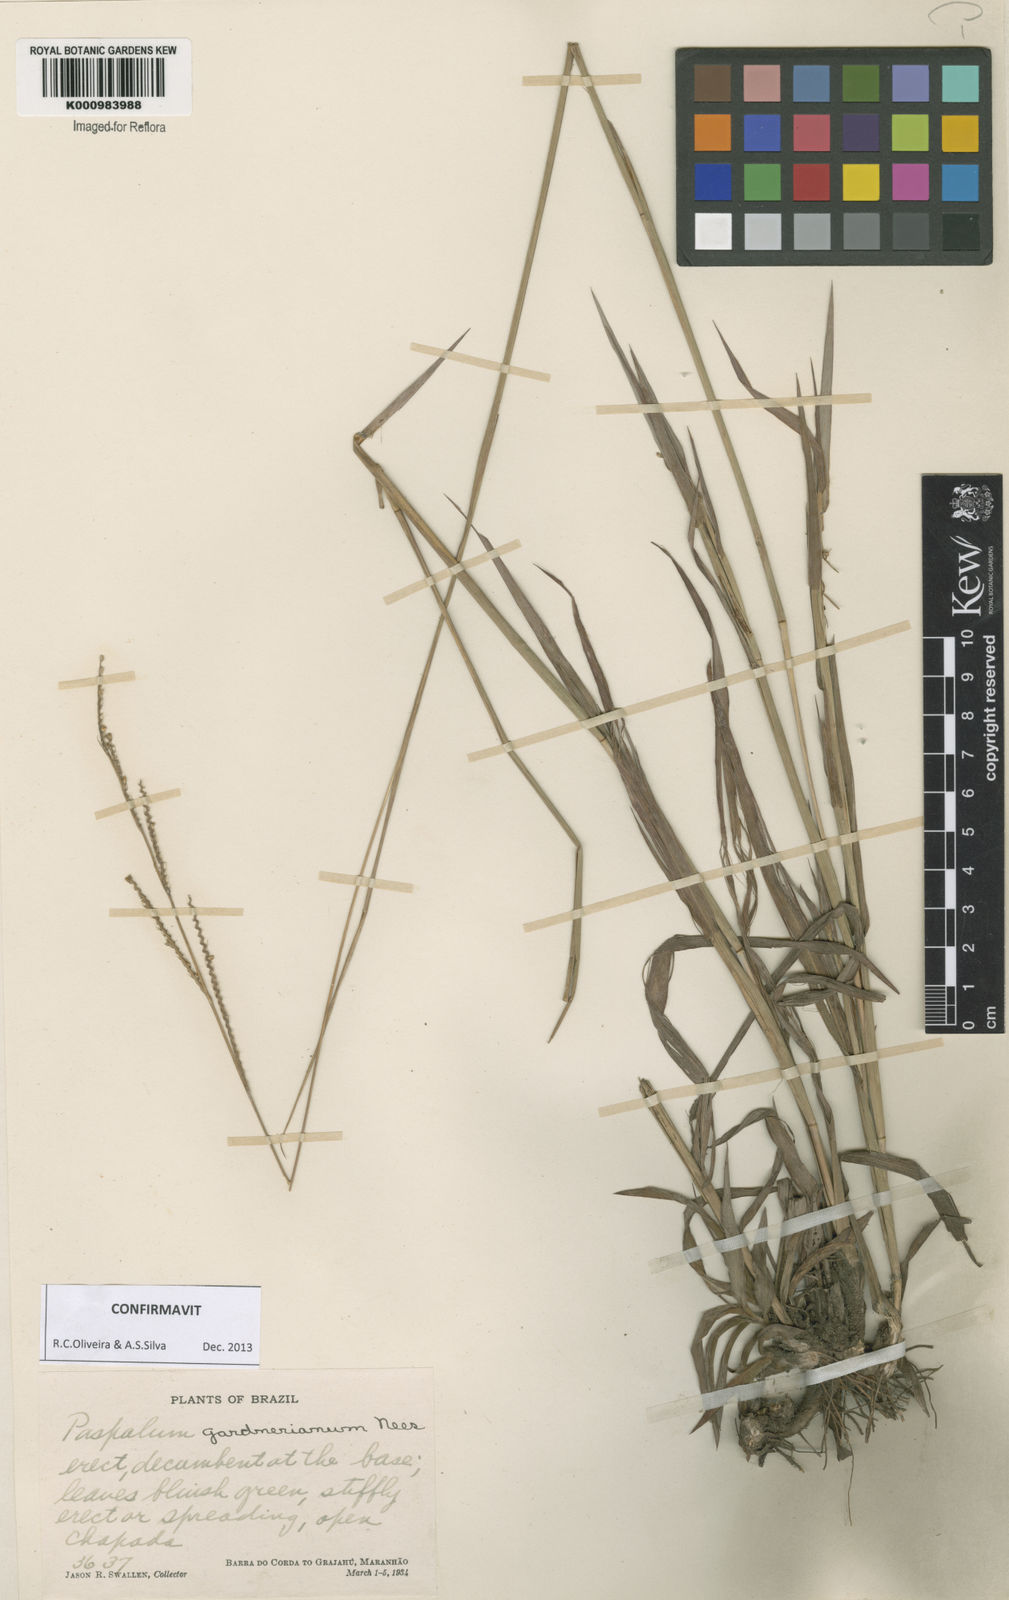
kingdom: Plantae
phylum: Tracheophyta
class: Liliopsida
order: Poales
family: Poaceae
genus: Paspalum
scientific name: Paspalum gardnerianum
